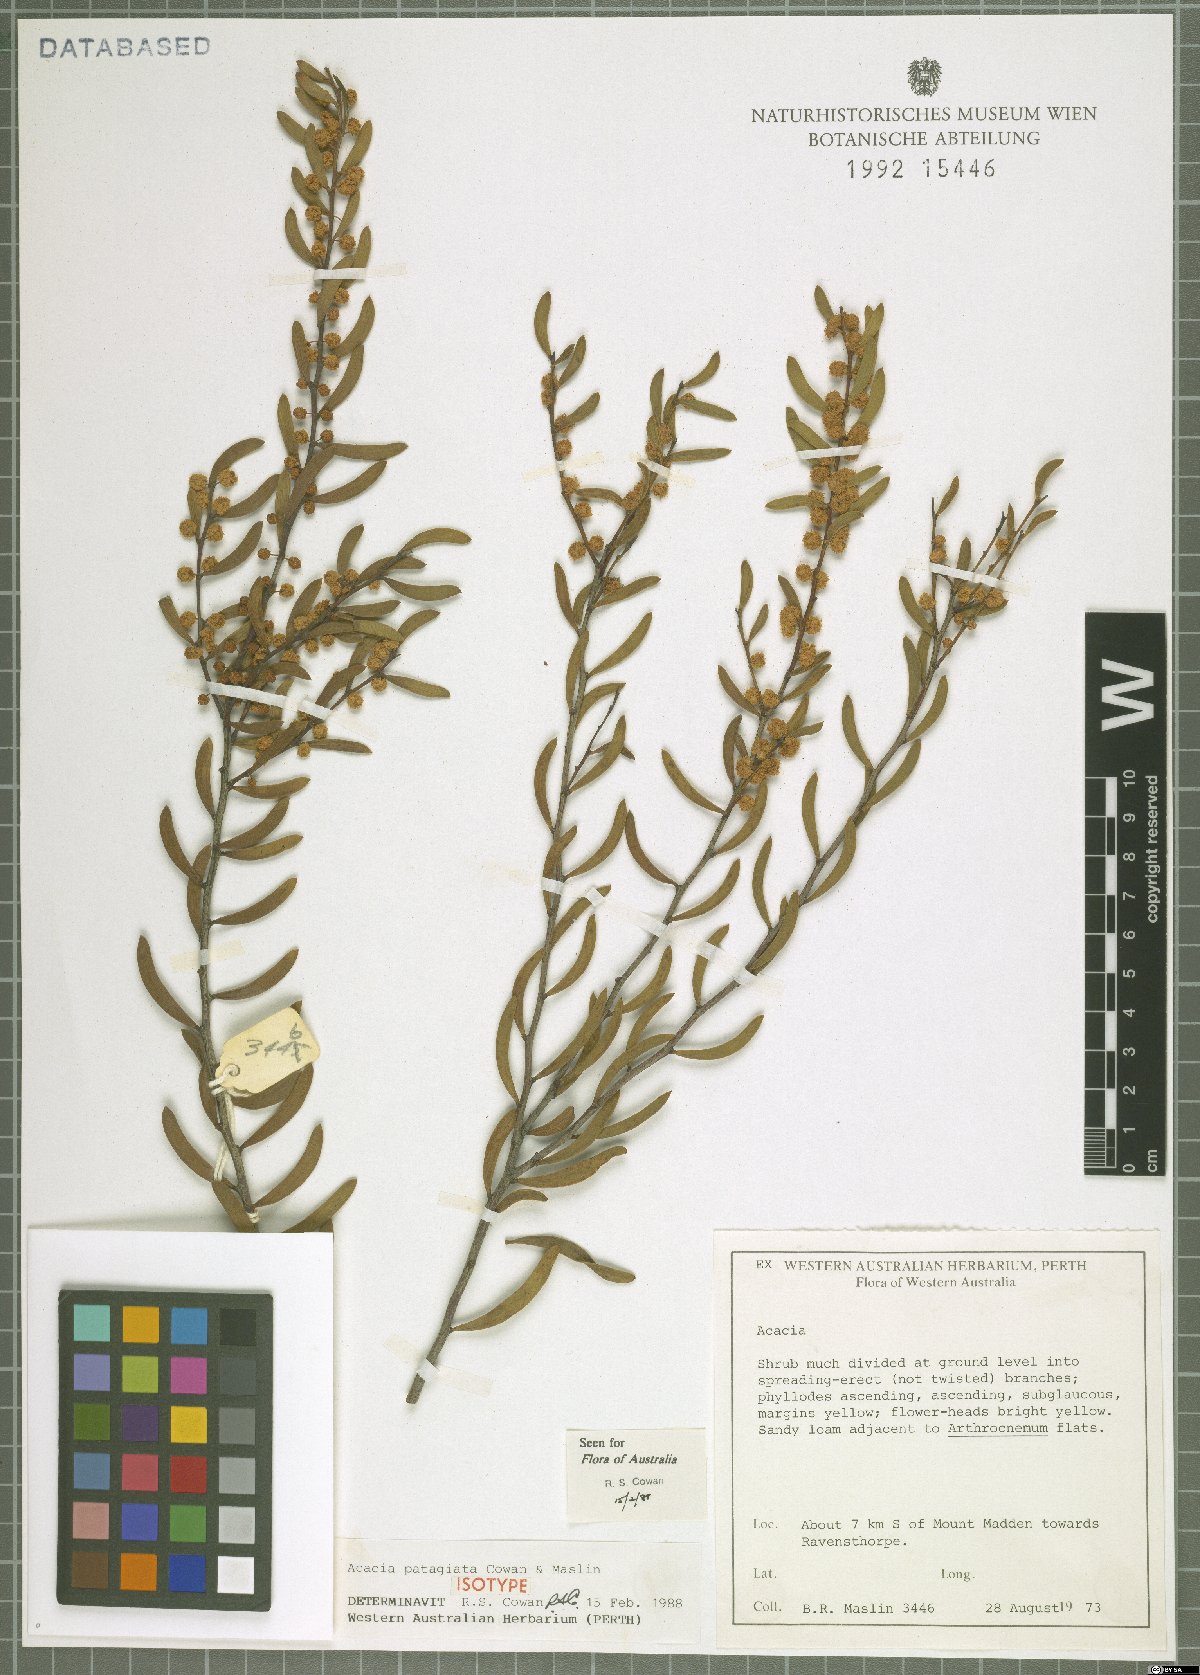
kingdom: Plantae
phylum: Tracheophyta
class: Magnoliopsida
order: Fabales
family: Fabaceae
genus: Acacia
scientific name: Acacia patagiata
